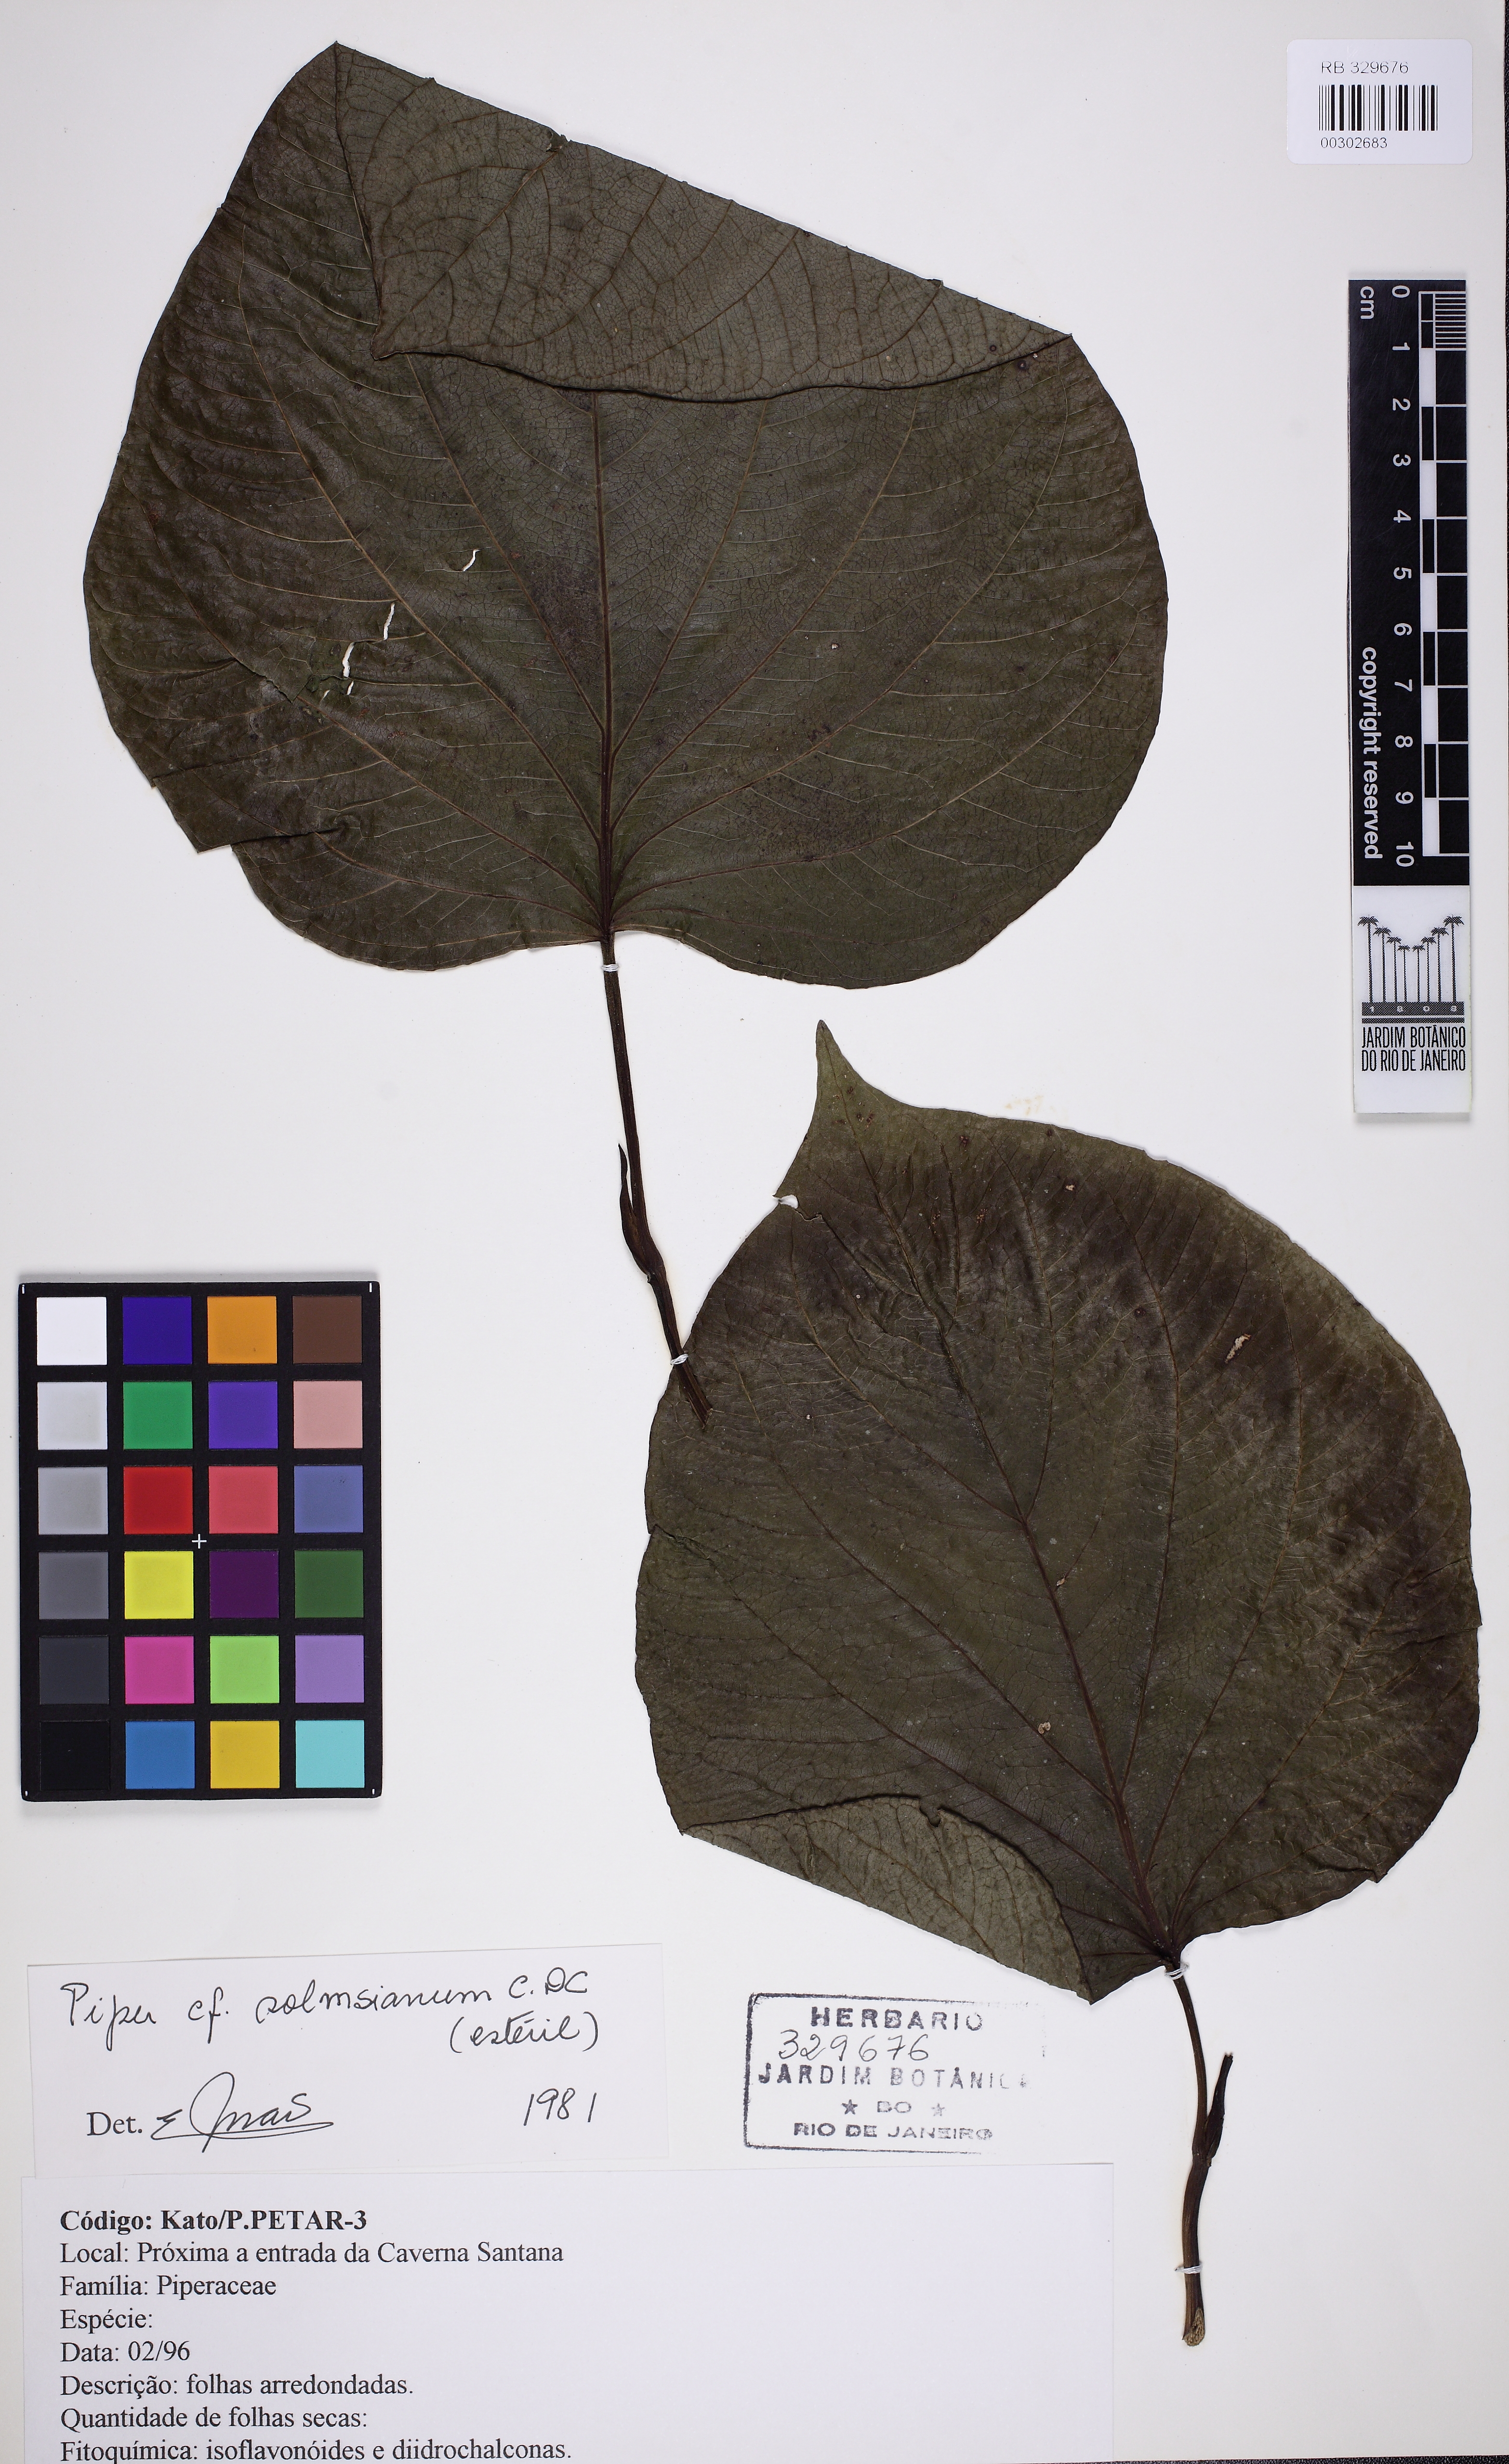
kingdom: Plantae
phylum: Tracheophyta
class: Magnoliopsida
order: Piperales
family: Piperaceae
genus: Piper
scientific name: Piper solmsianum
